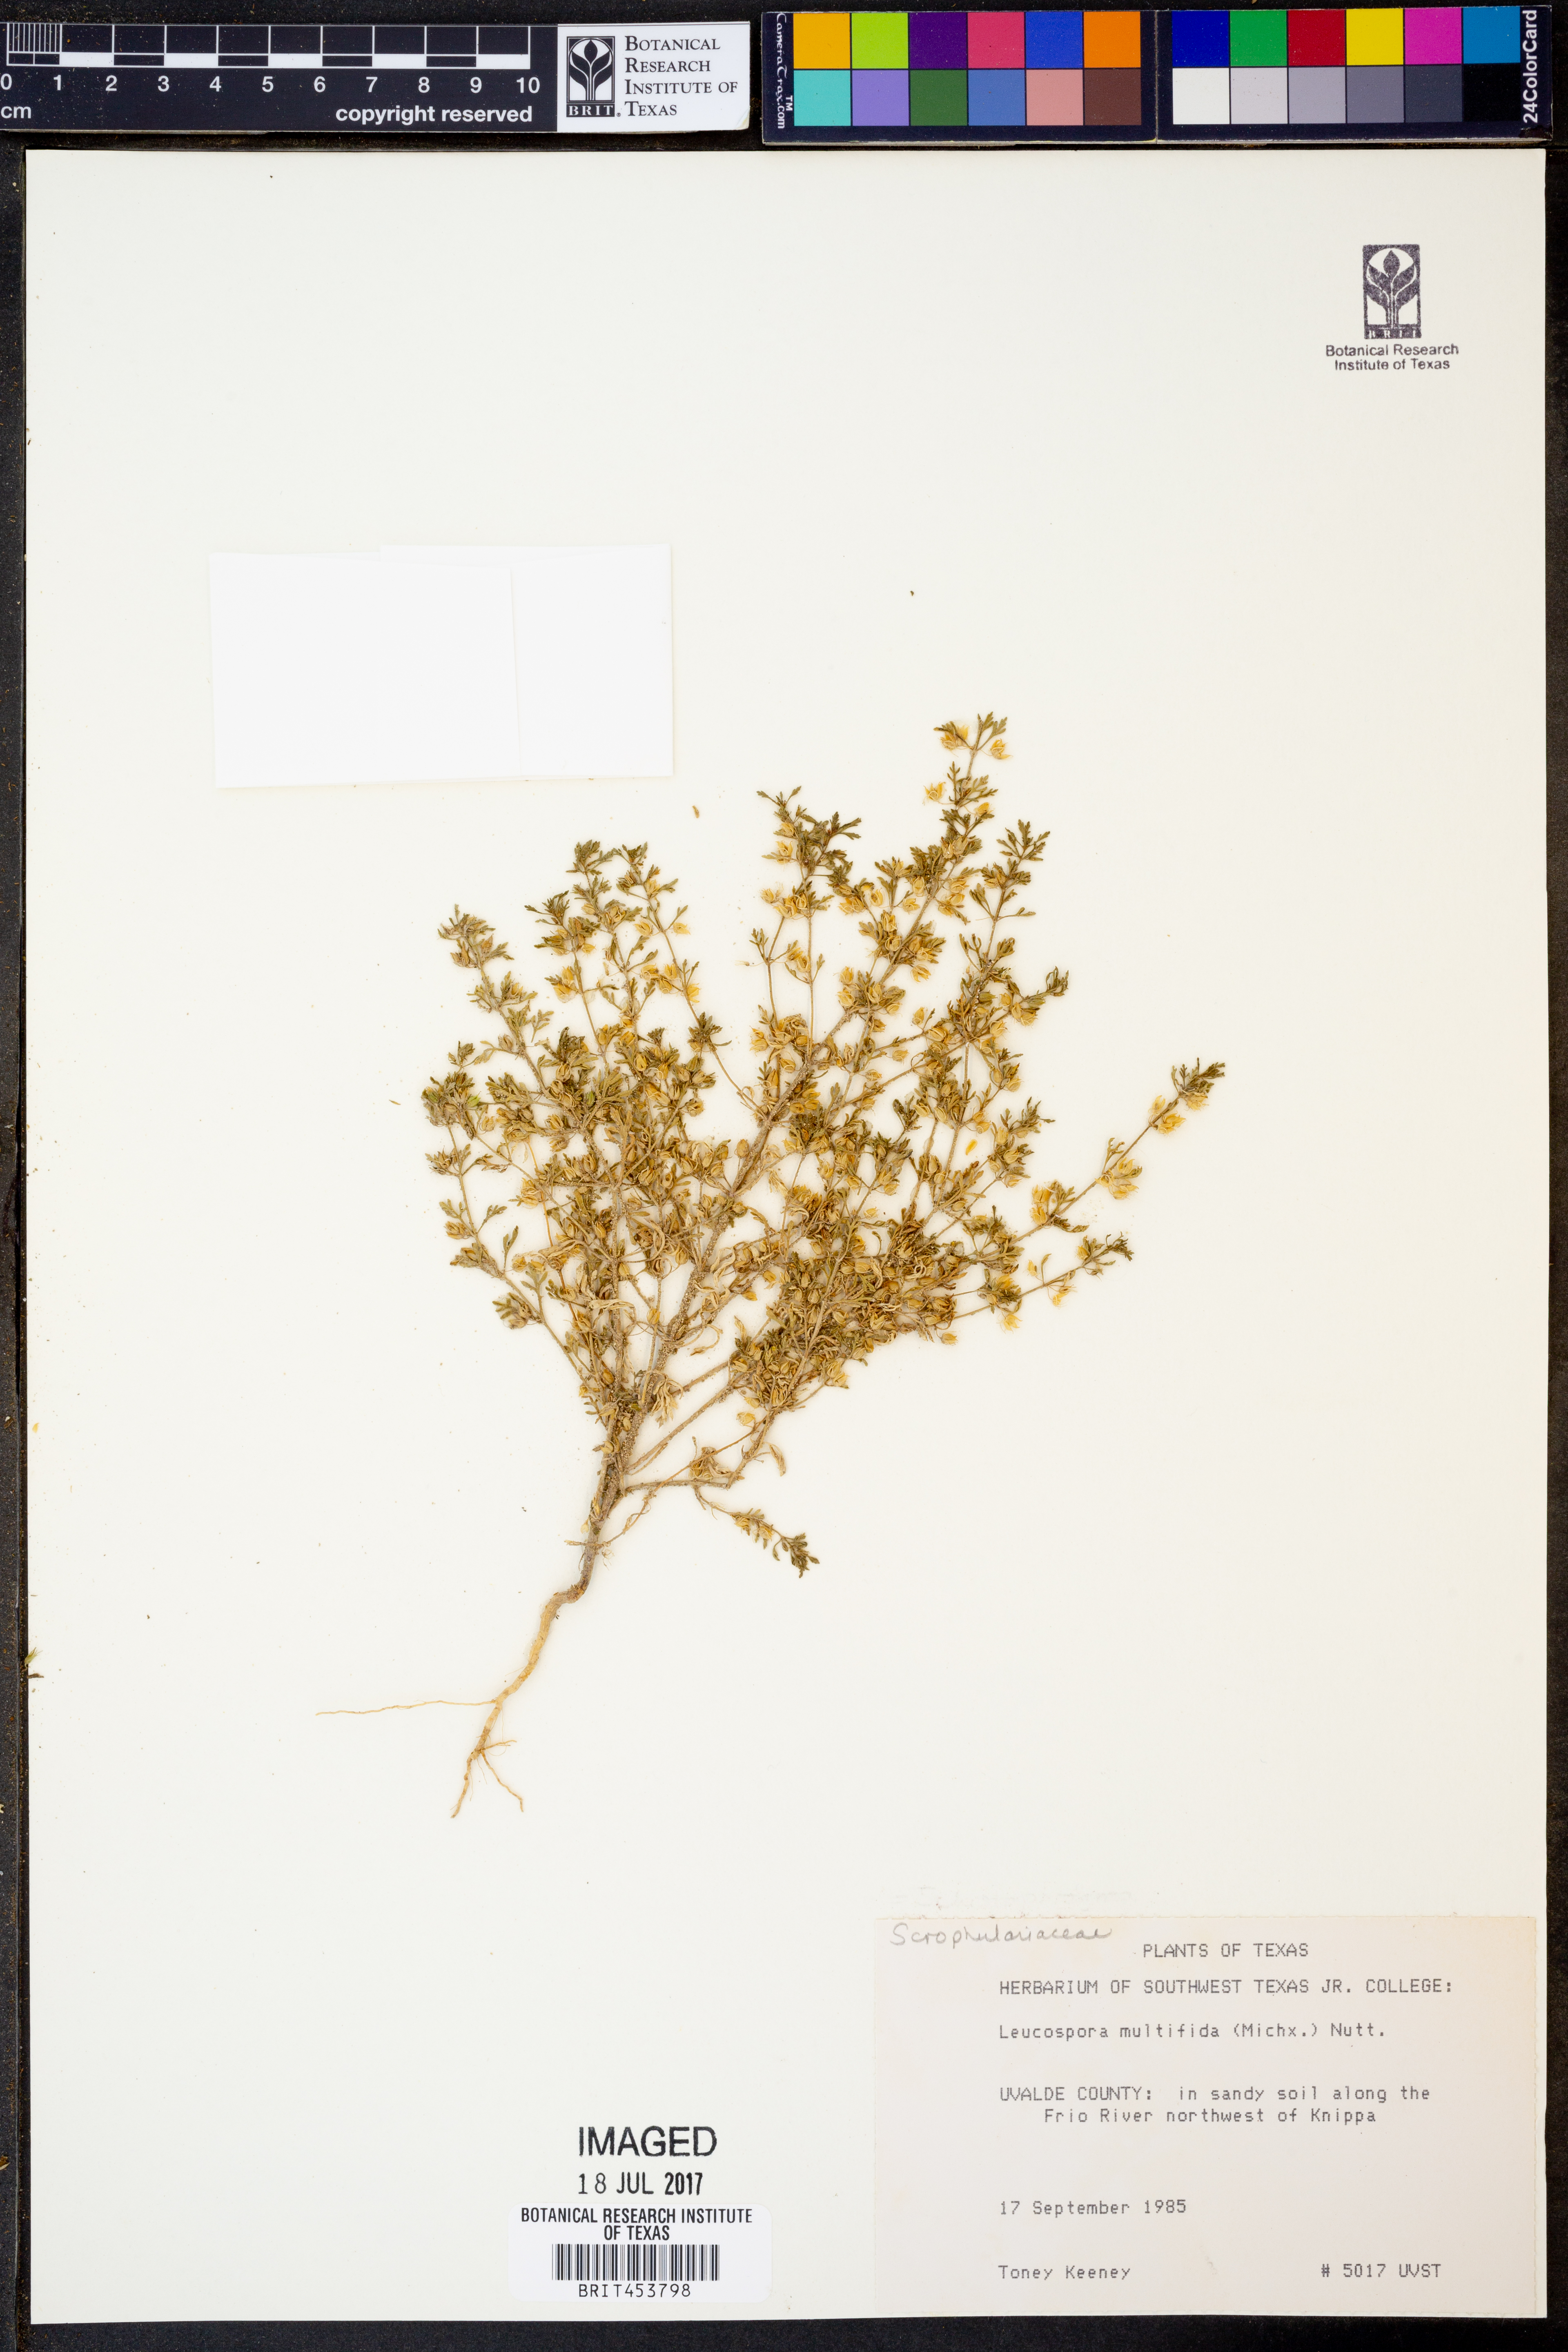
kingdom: Plantae
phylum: Tracheophyta
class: Magnoliopsida
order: Lamiales
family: Plantaginaceae
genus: Leucospora
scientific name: Leucospora multifida
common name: Narrow-leaf paleseed
